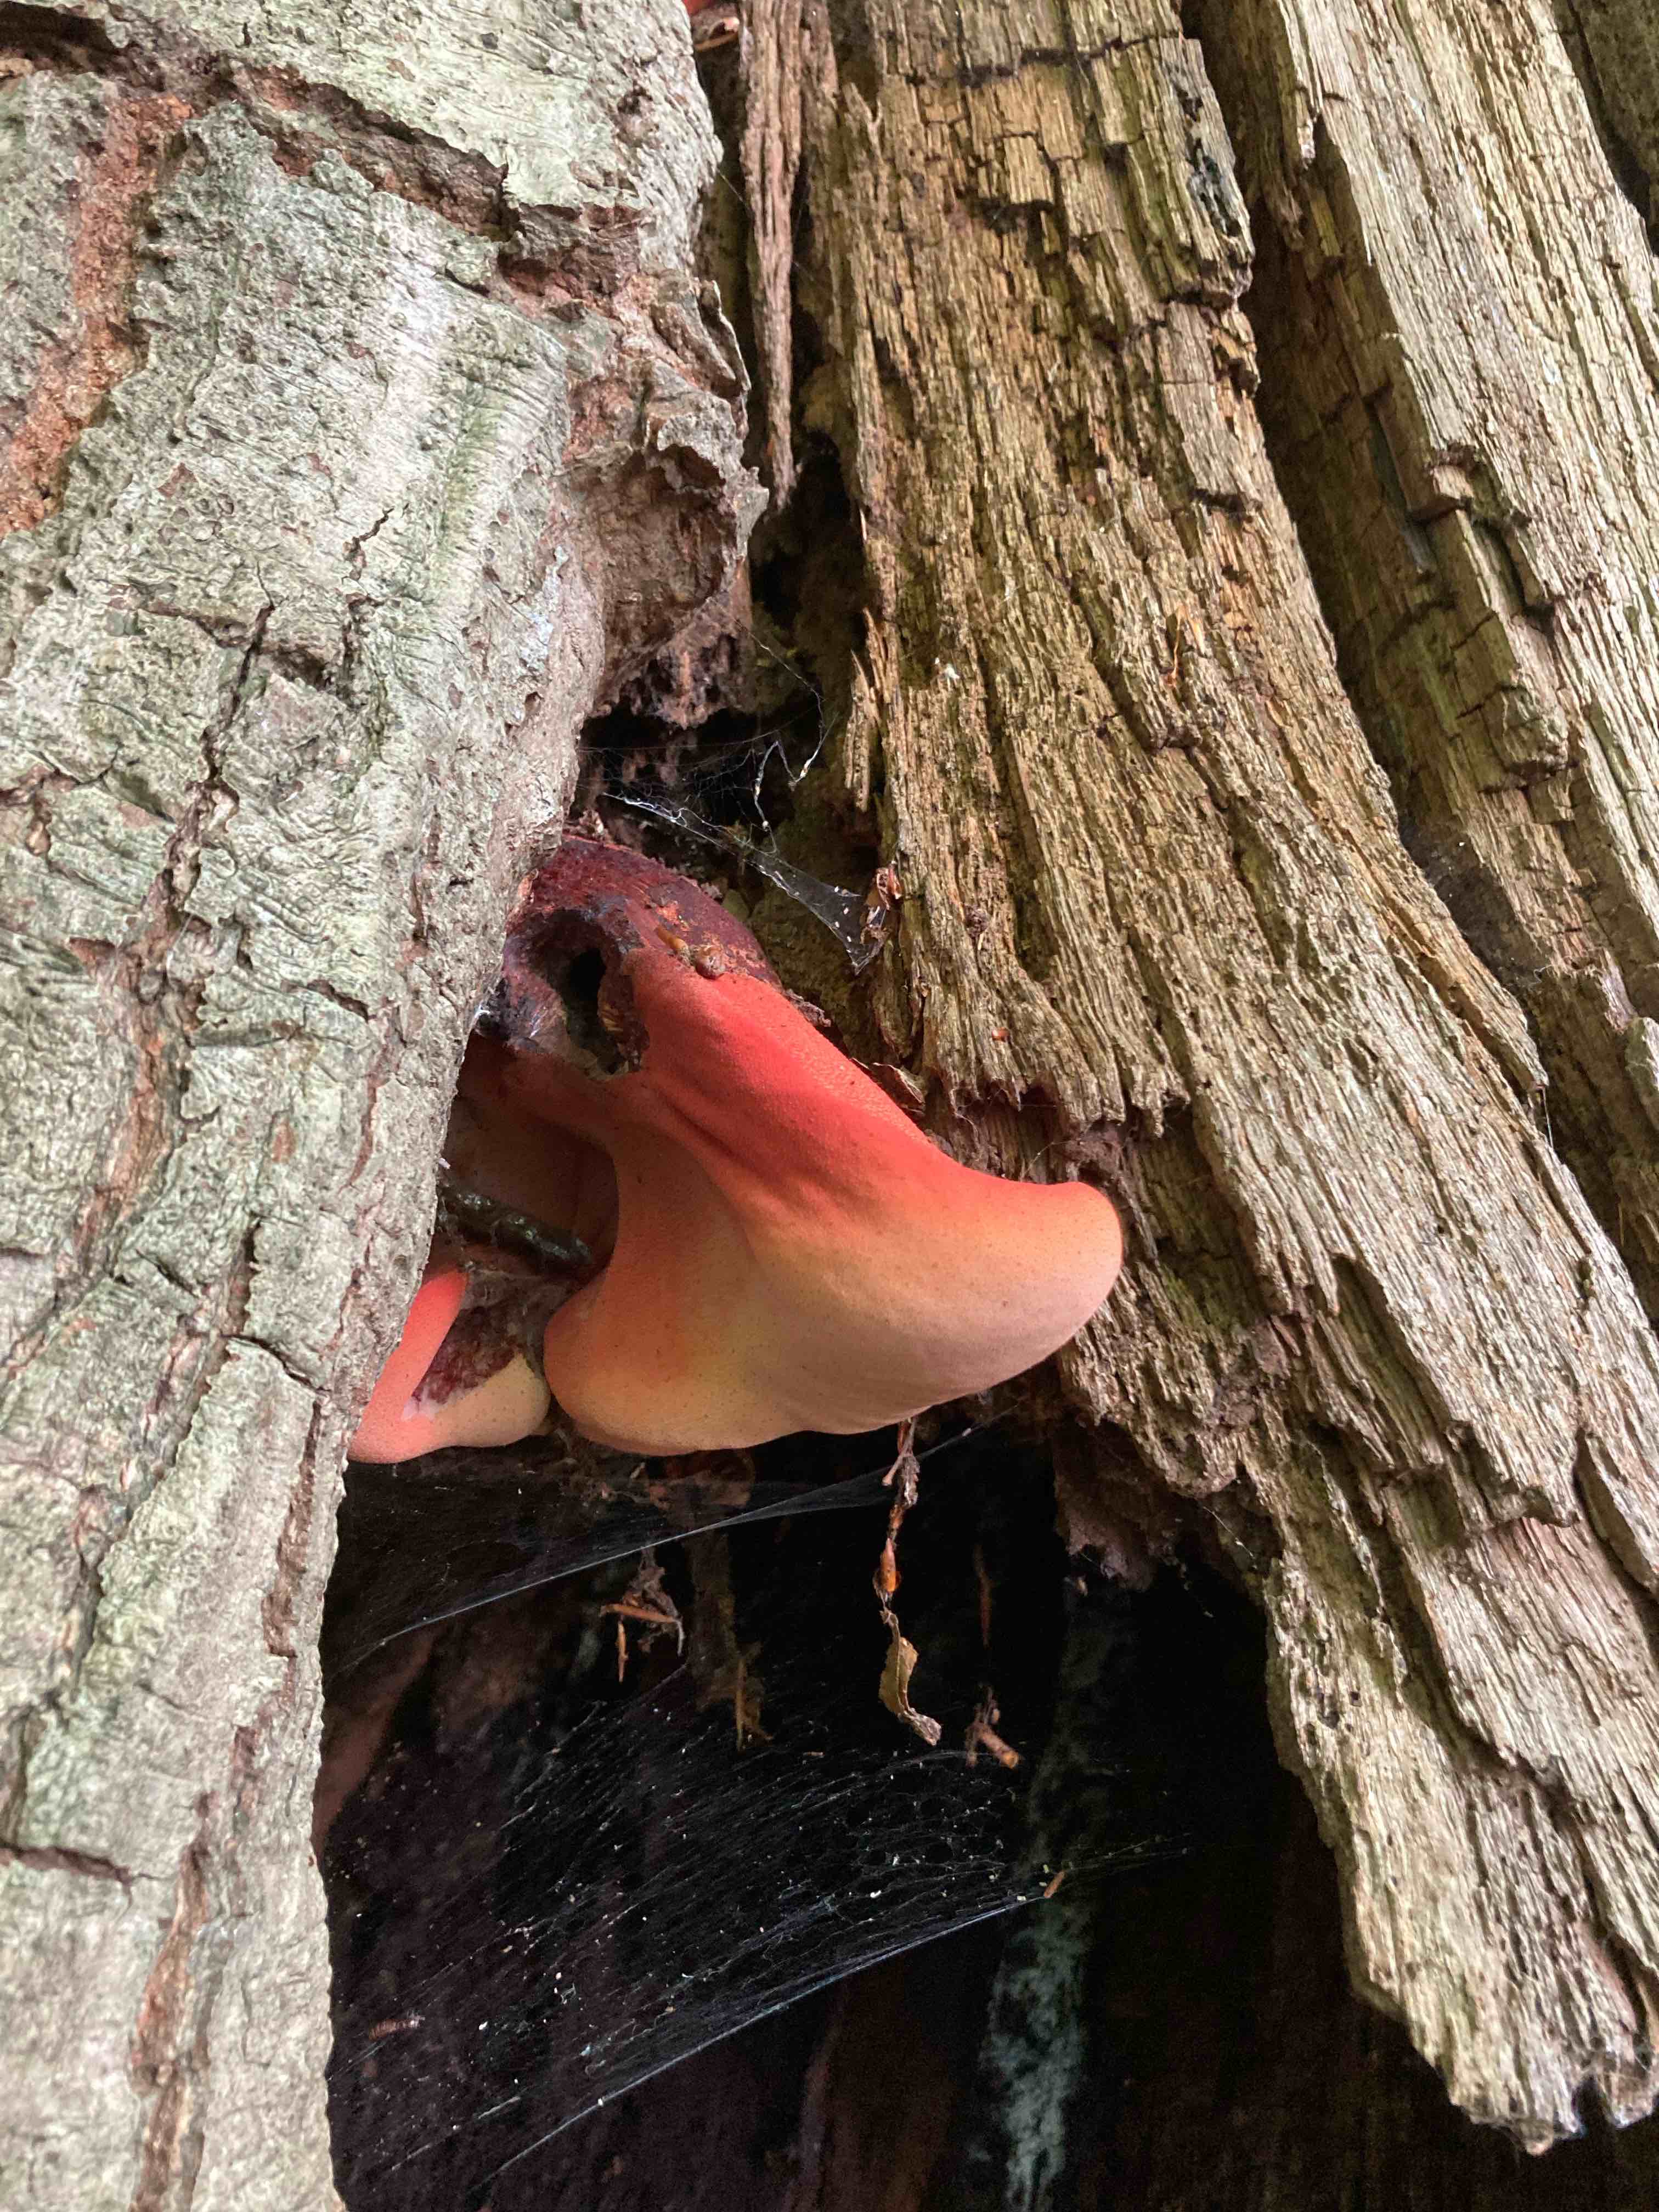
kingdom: Fungi
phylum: Basidiomycota
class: Agaricomycetes
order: Agaricales
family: Fistulinaceae
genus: Fistulina
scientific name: Fistulina hepatica
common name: oksetunge
